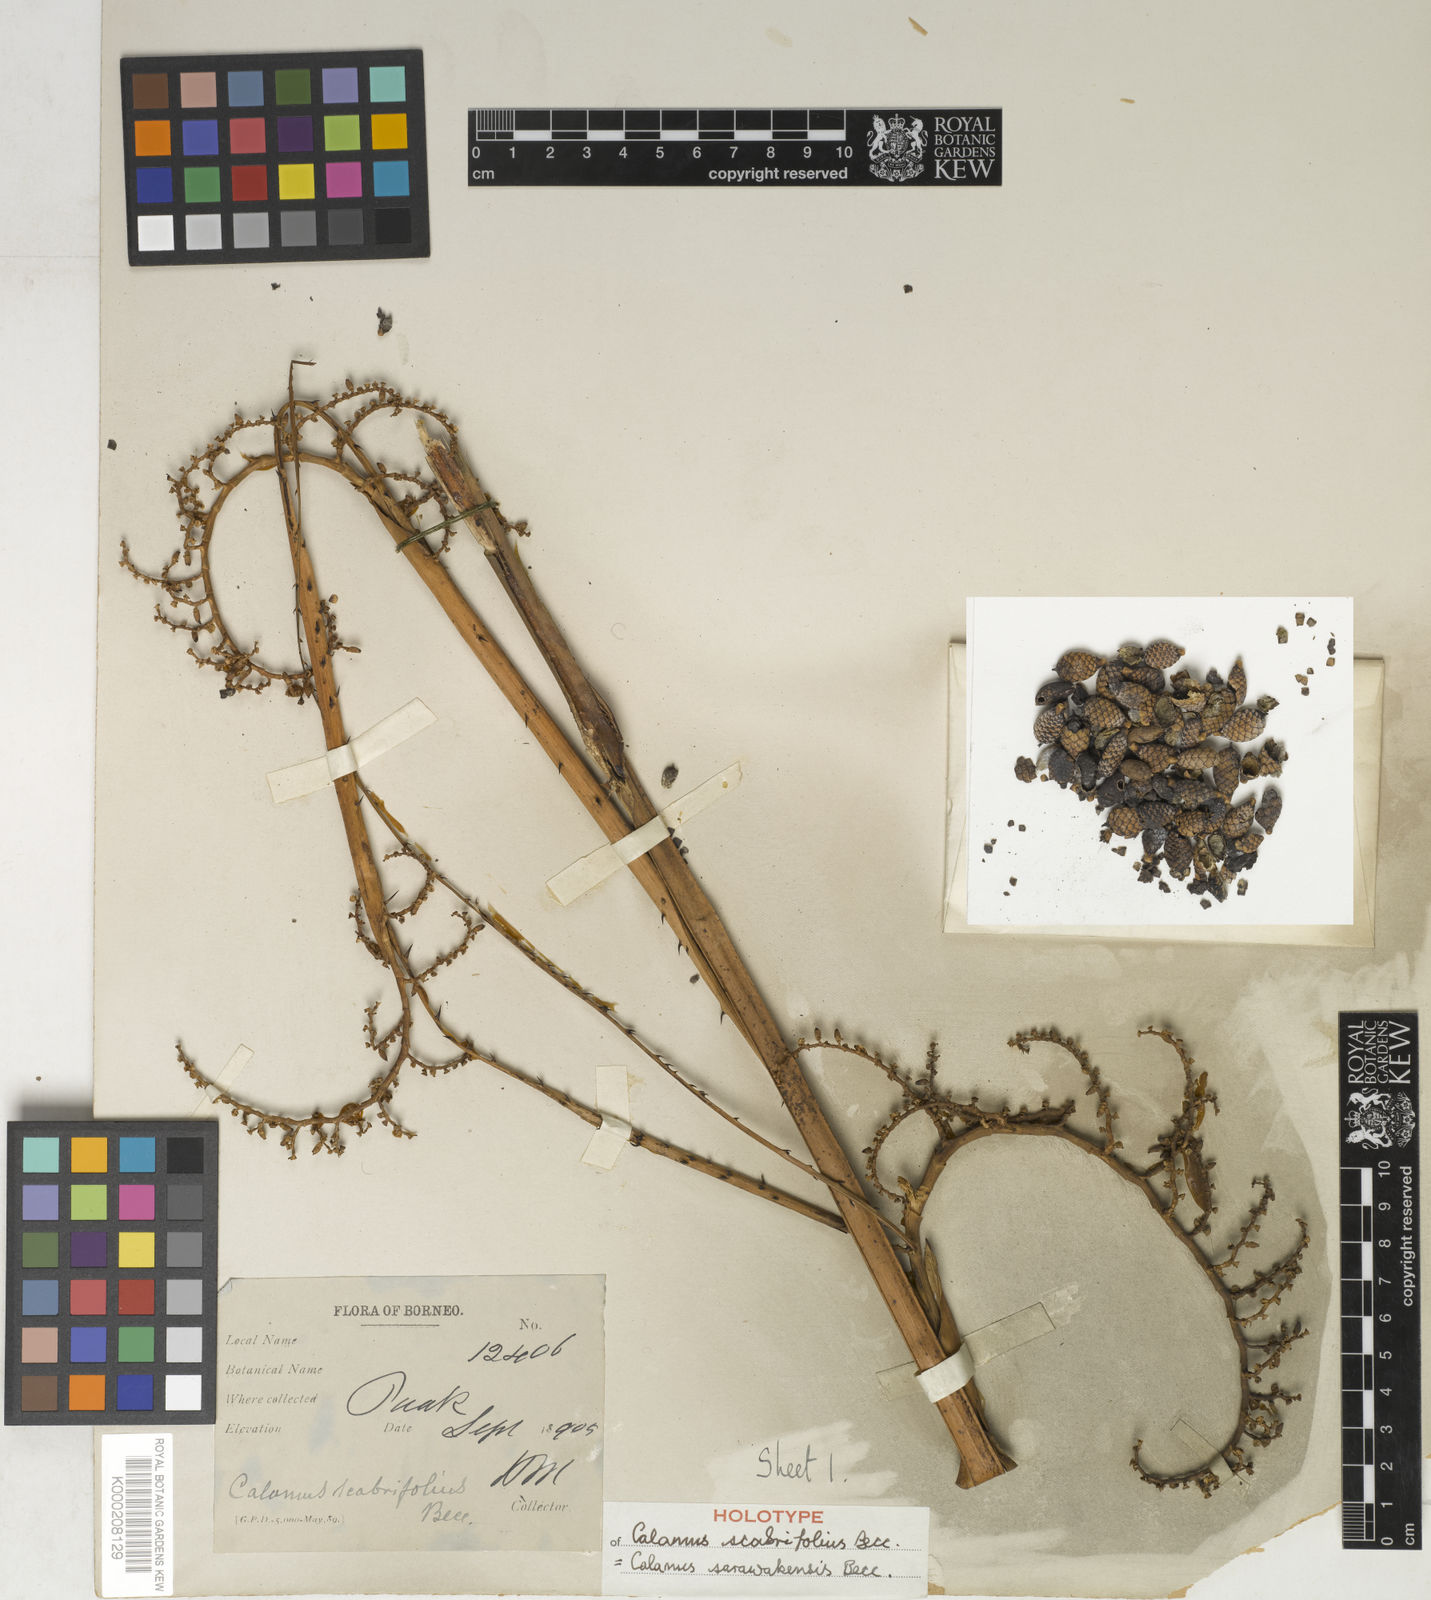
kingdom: Plantae
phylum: Tracheophyta
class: Liliopsida
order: Arecales
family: Arecaceae
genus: Calamus
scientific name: Calamus sarawakensis
